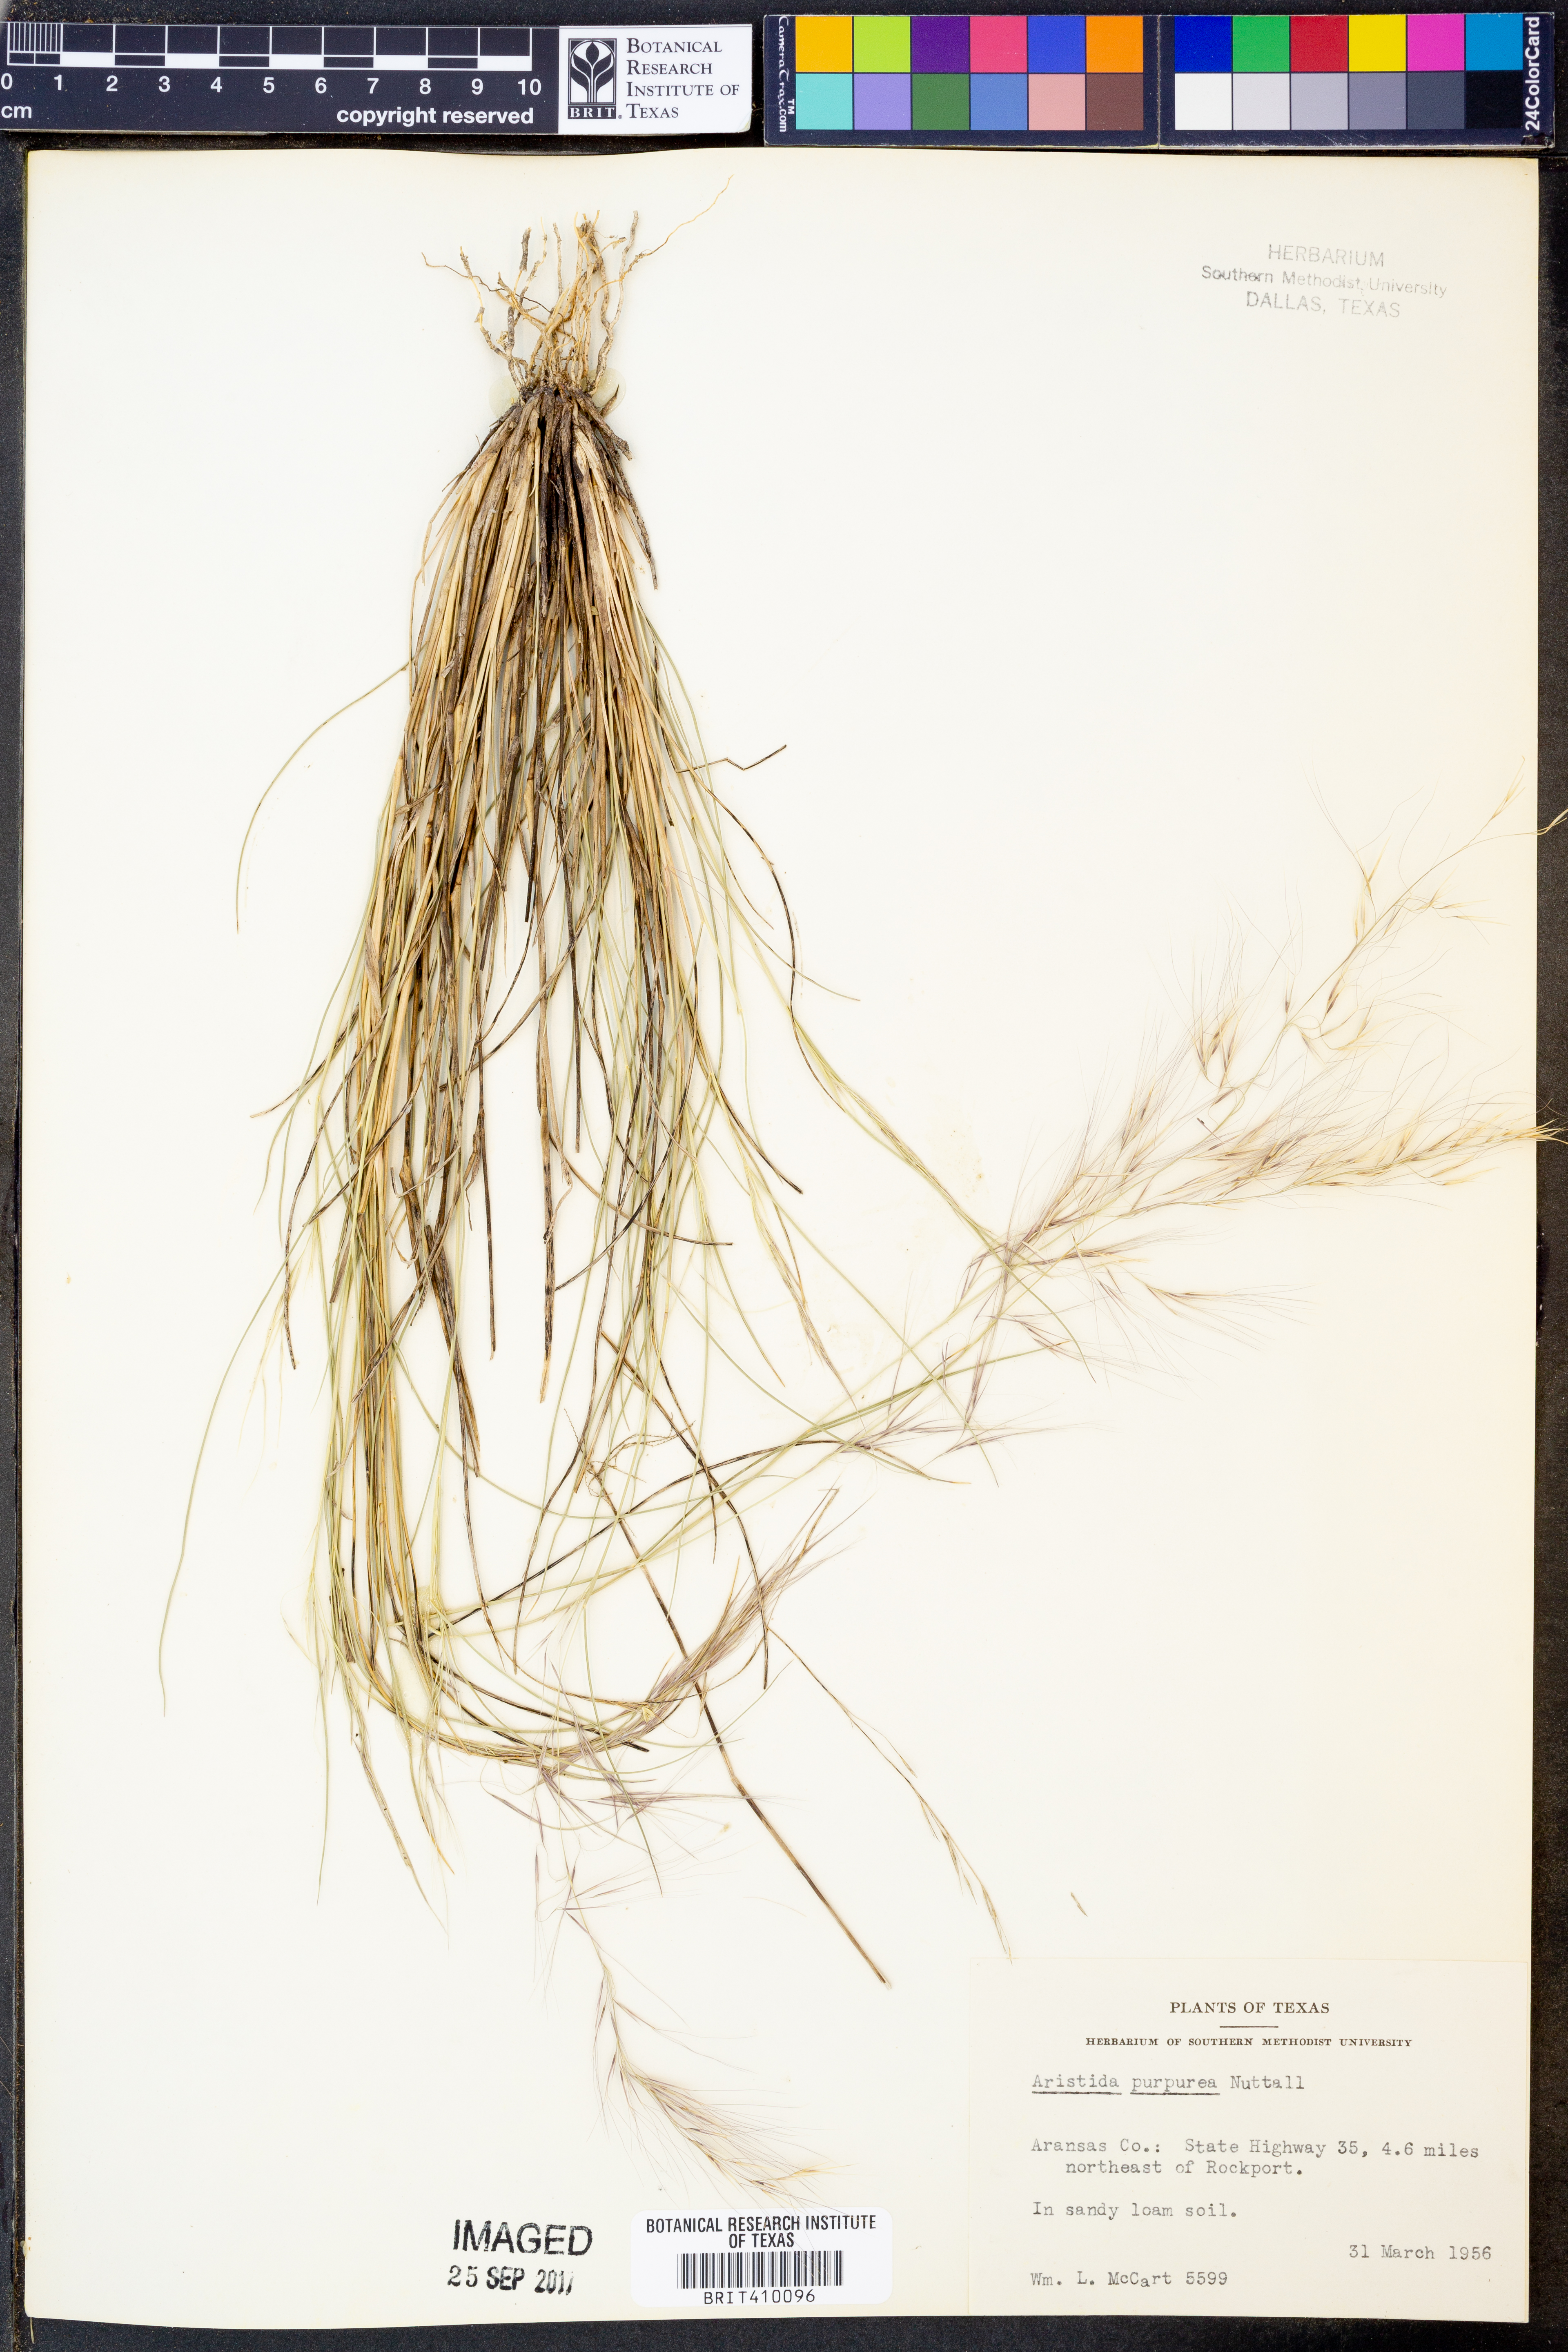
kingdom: Plantae
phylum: Tracheophyta
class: Liliopsida
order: Poales
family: Poaceae
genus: Aristida
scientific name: Aristida purpurea
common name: Purple threeawn
